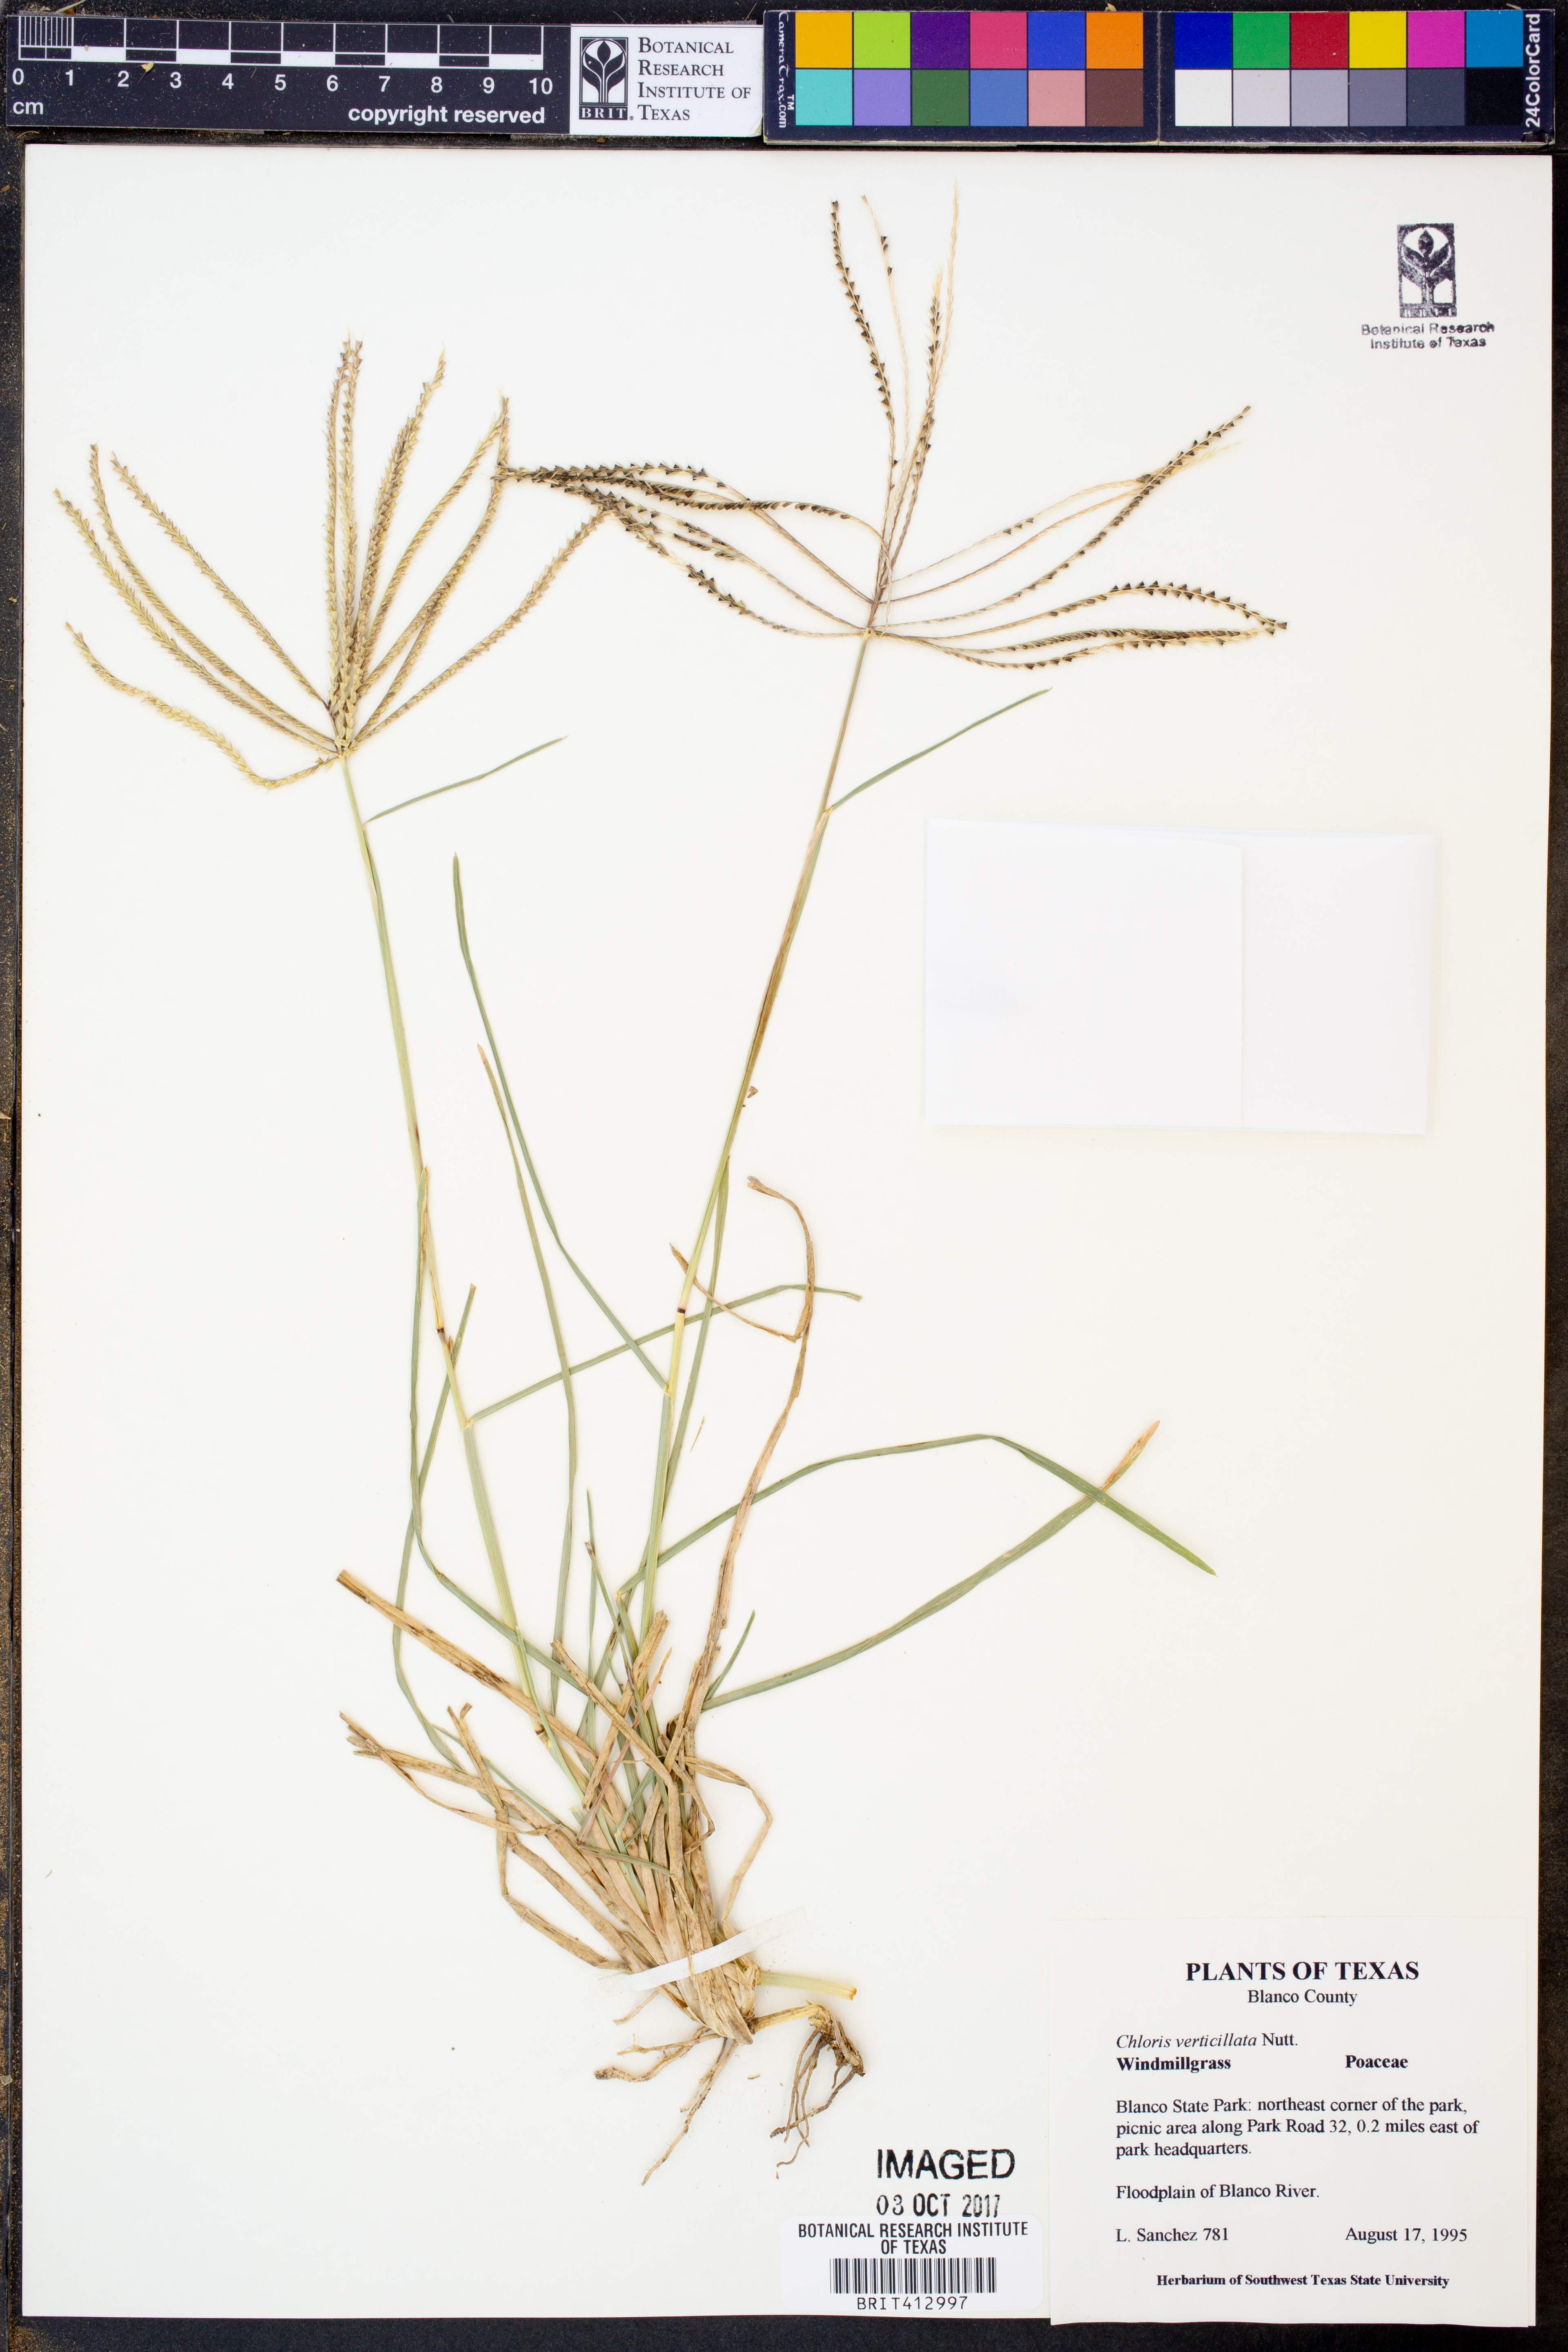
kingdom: Plantae
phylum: Tracheophyta
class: Liliopsida
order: Poales
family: Poaceae
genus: Chloris
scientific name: Chloris verticillata
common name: Tumble windmill grass
